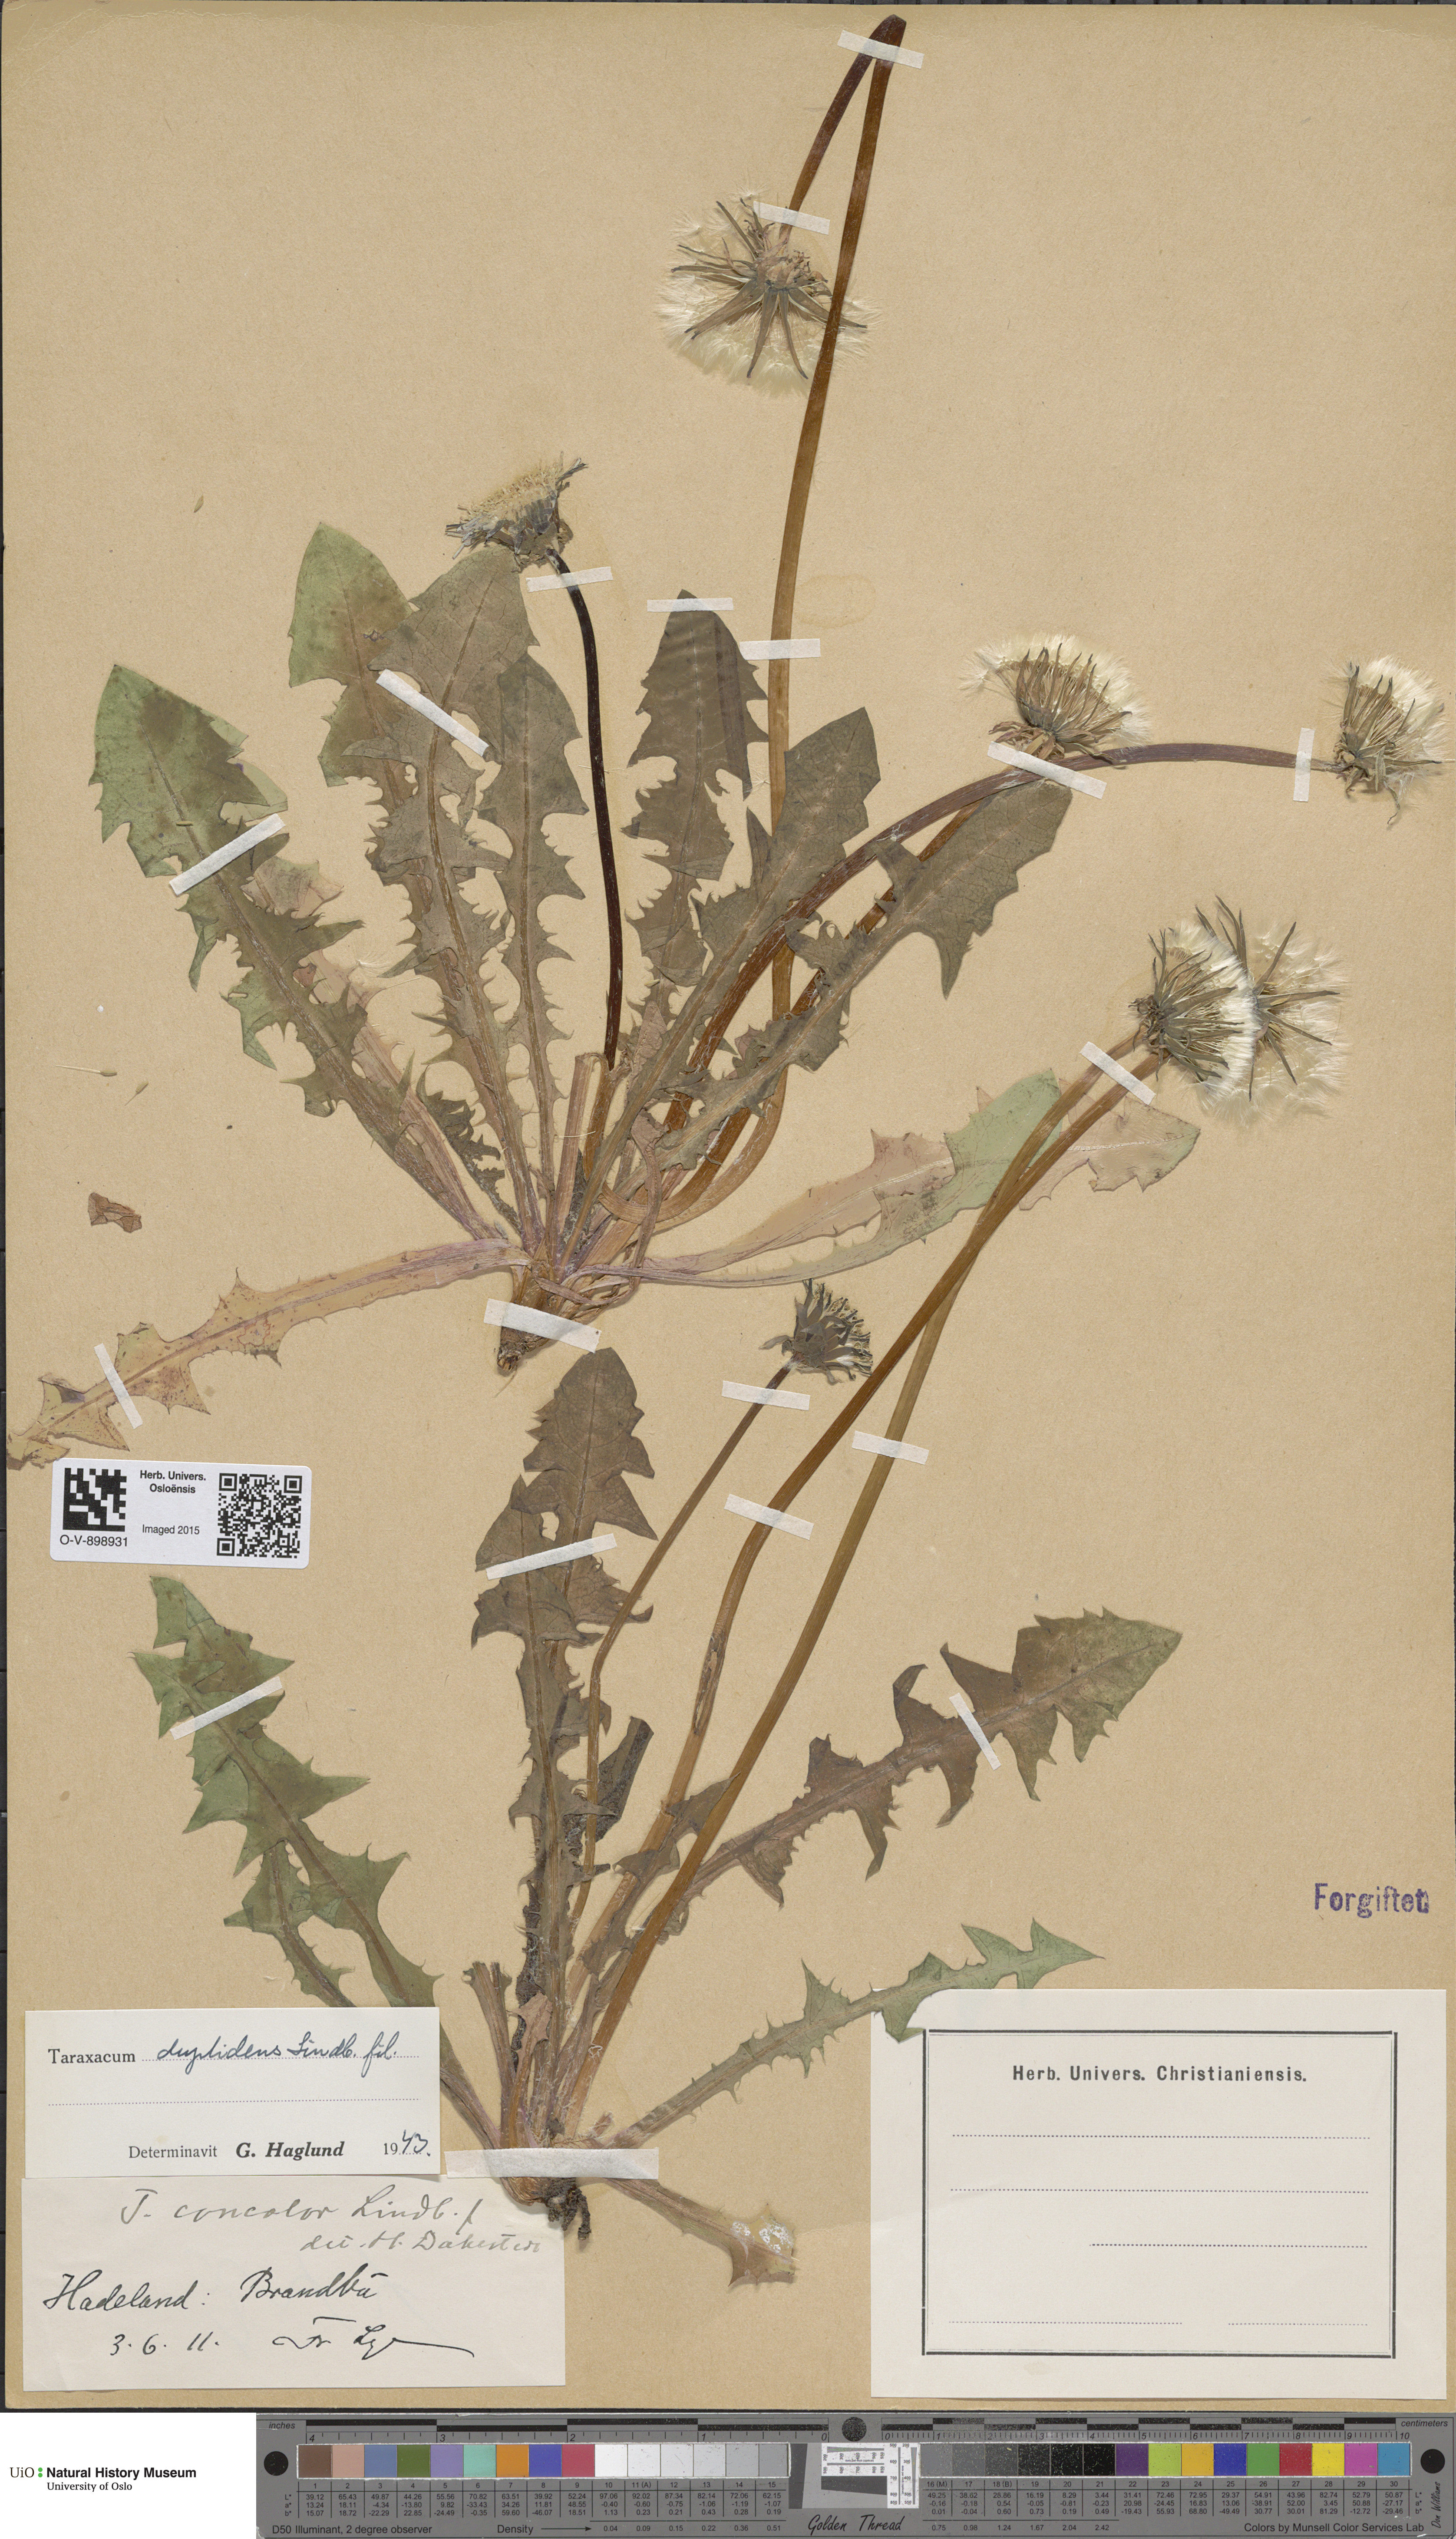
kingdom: Plantae
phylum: Tracheophyta
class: Magnoliopsida
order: Asterales
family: Asteraceae
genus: Taraxacum
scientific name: Taraxacum ostenfeldii
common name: Ostenfeld's dandelion
